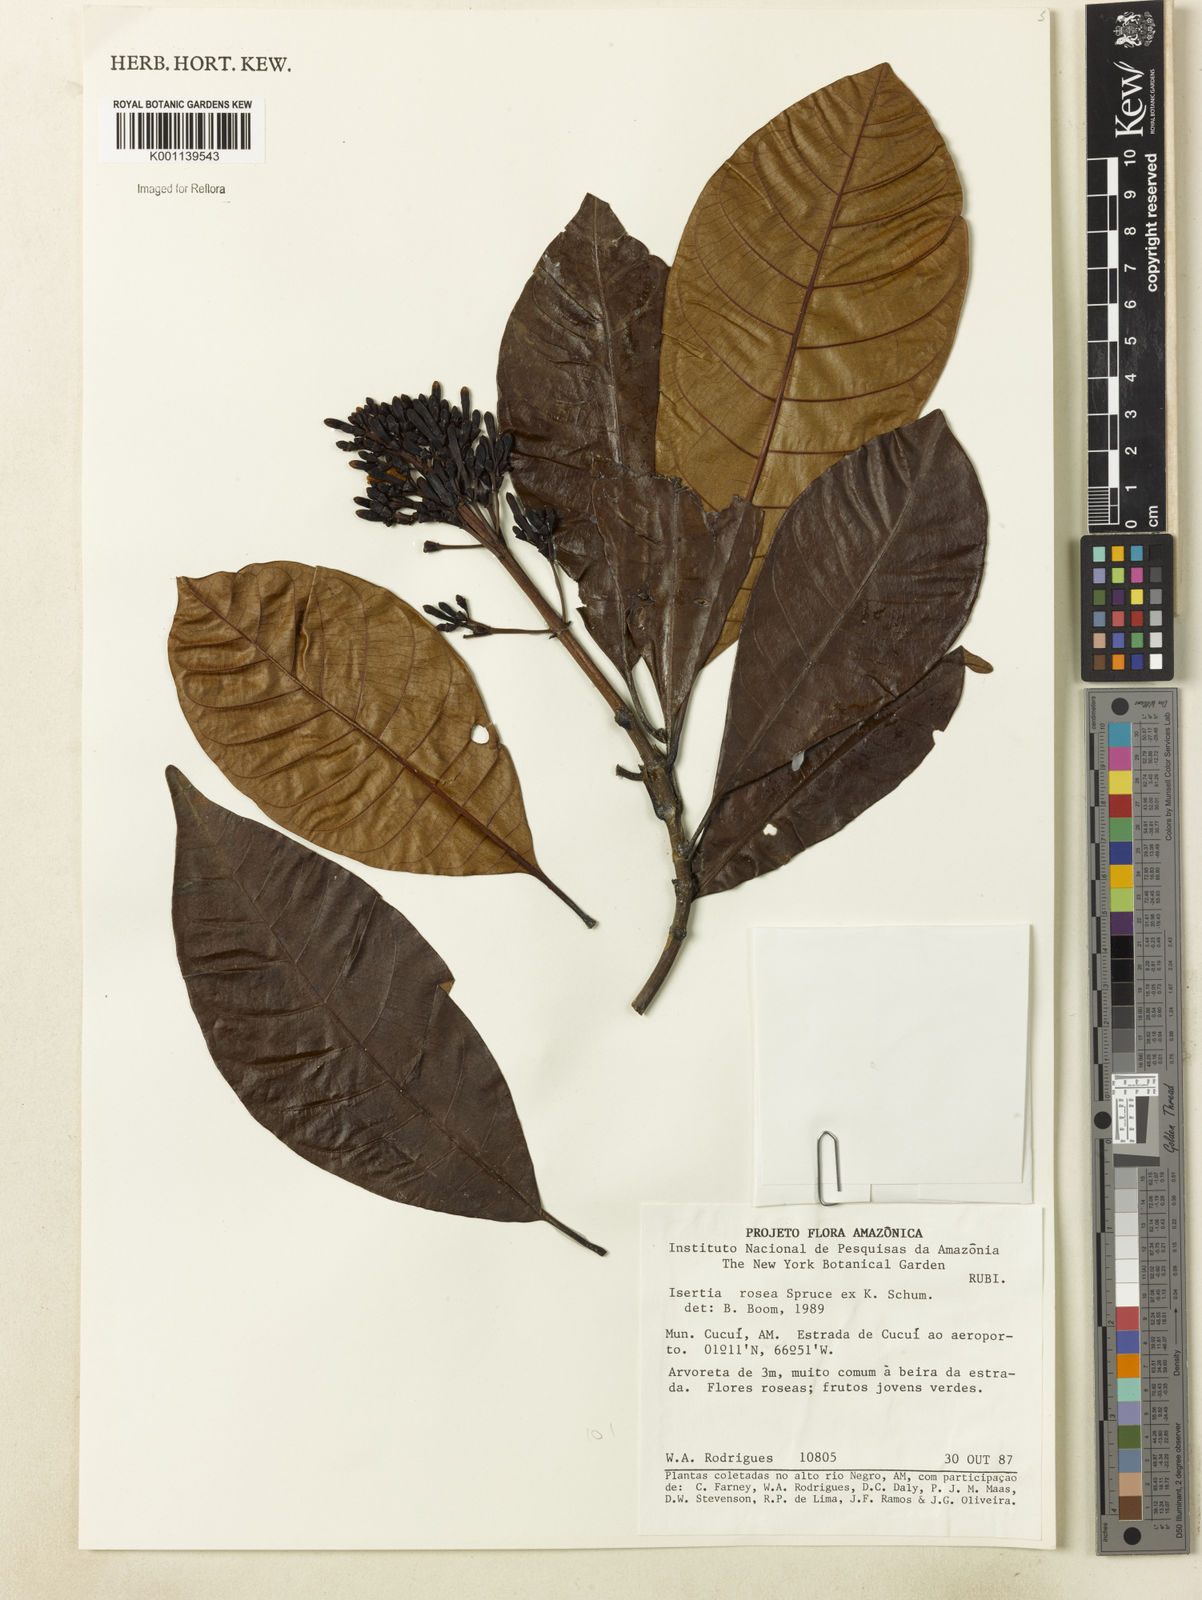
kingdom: Plantae
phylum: Tracheophyta
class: Magnoliopsida
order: Gentianales
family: Rubiaceae
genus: Isertia
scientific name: Isertia rosea
